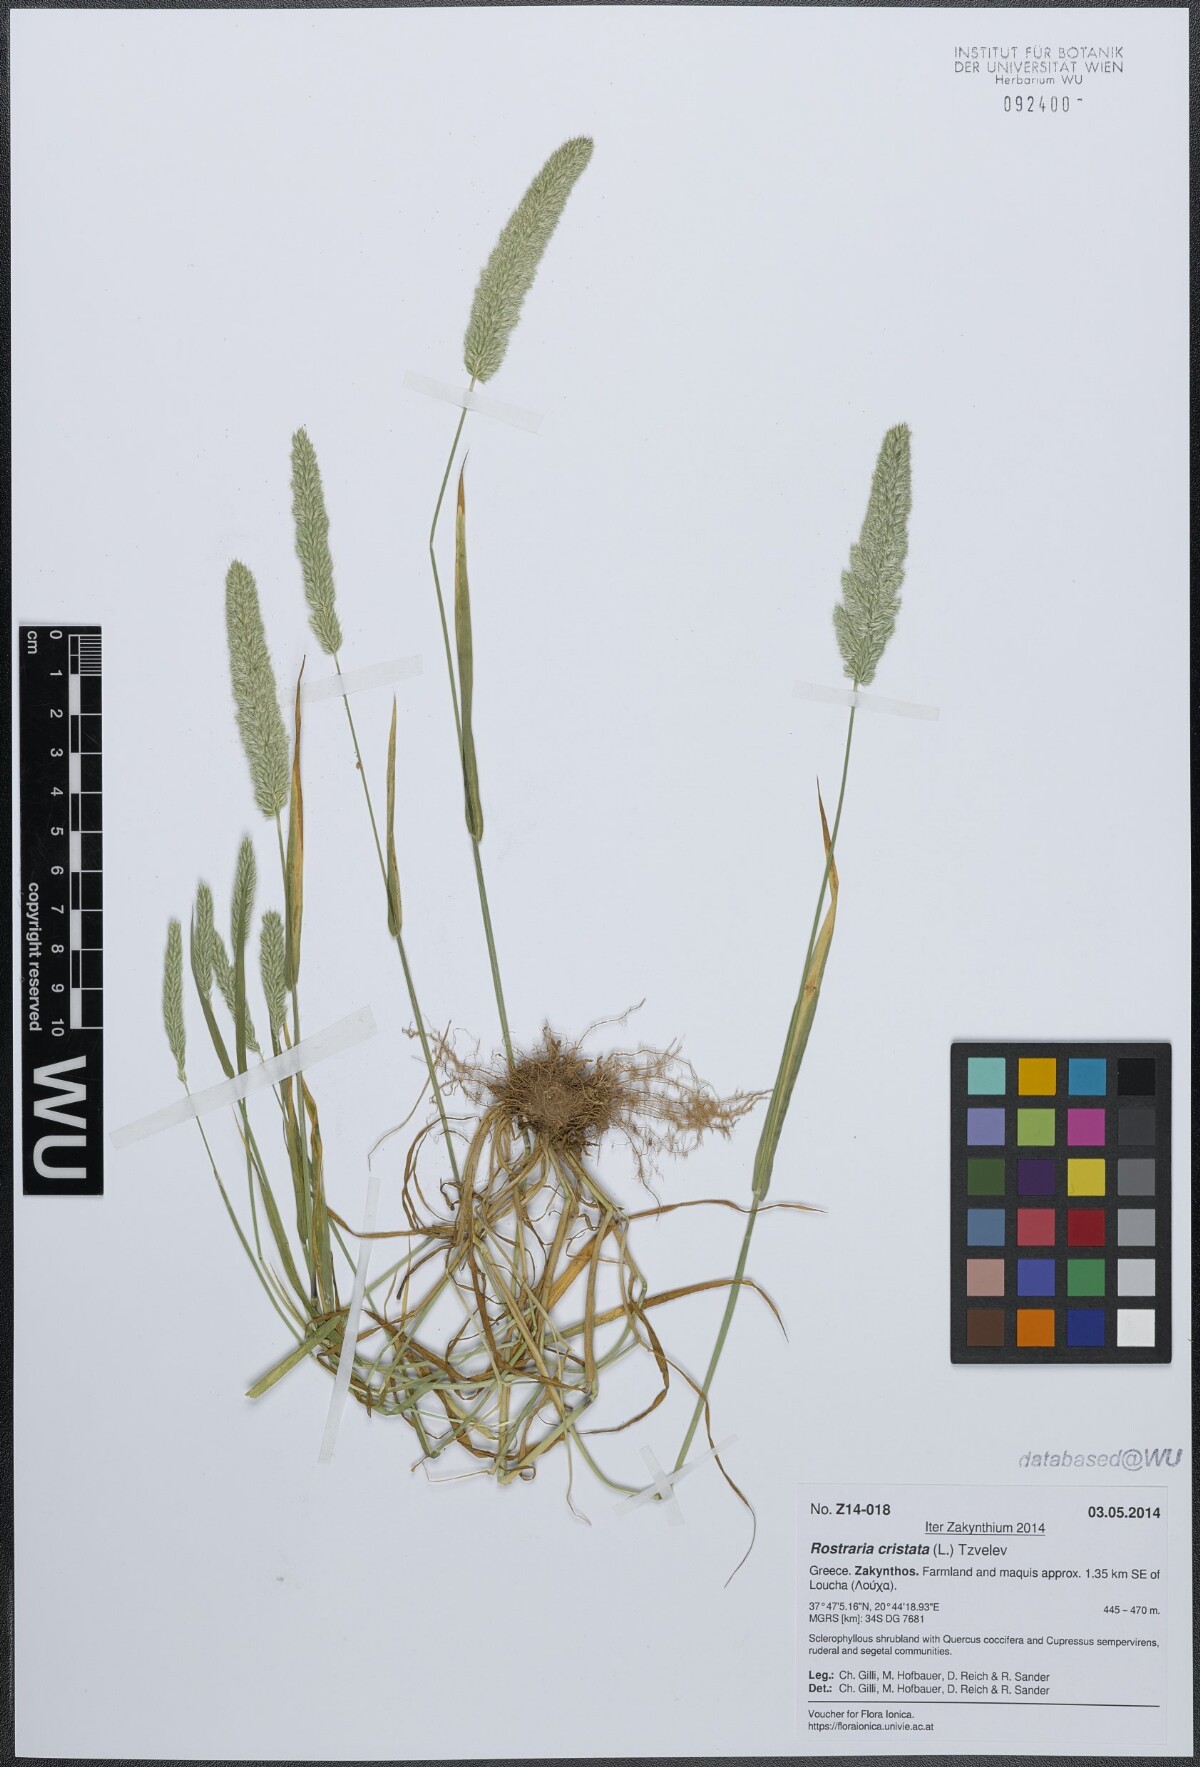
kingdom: Plantae
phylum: Tracheophyta
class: Liliopsida
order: Poales
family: Poaceae
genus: Rostraria
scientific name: Rostraria cristata
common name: Mediterranean hair-grass
